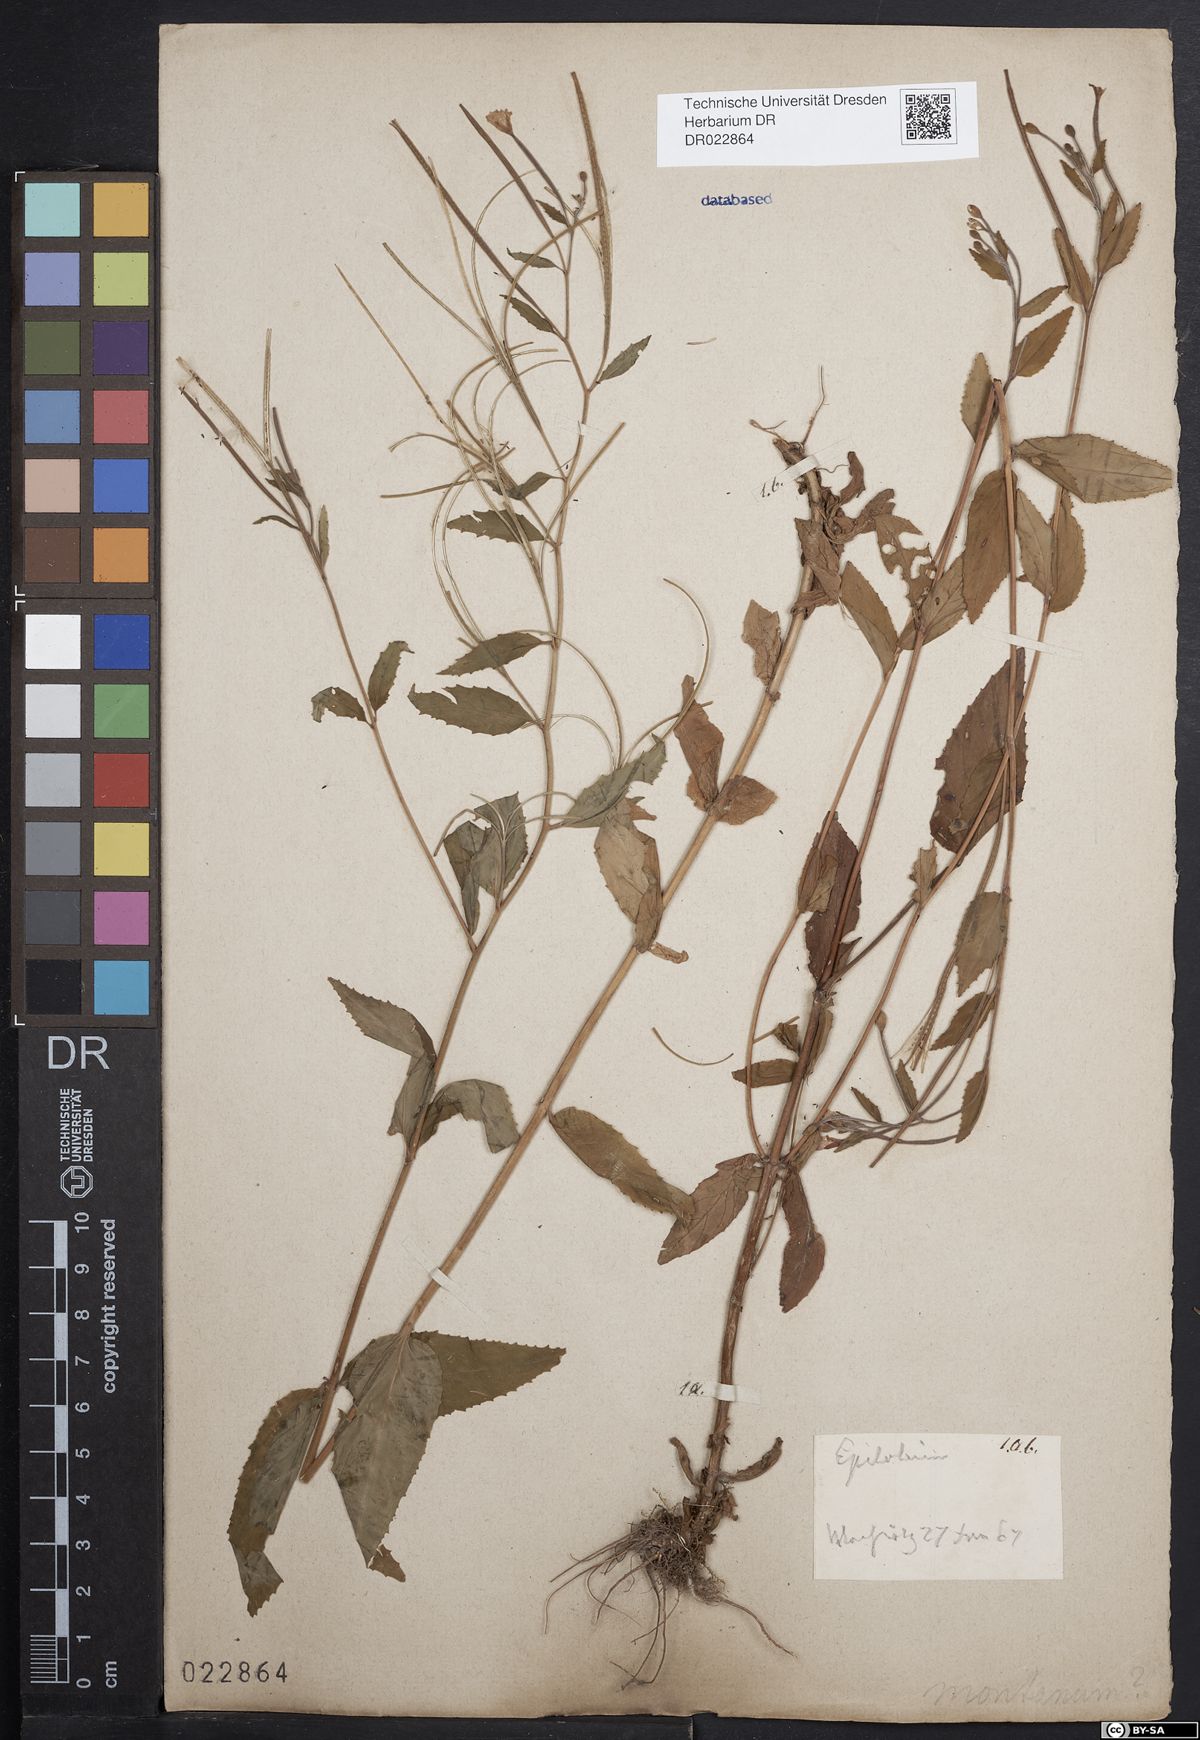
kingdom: Plantae
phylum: Tracheophyta
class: Magnoliopsida
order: Myrtales
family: Onagraceae
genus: Epilobium
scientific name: Epilobium montanum
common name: Broad-leaved willowherb
